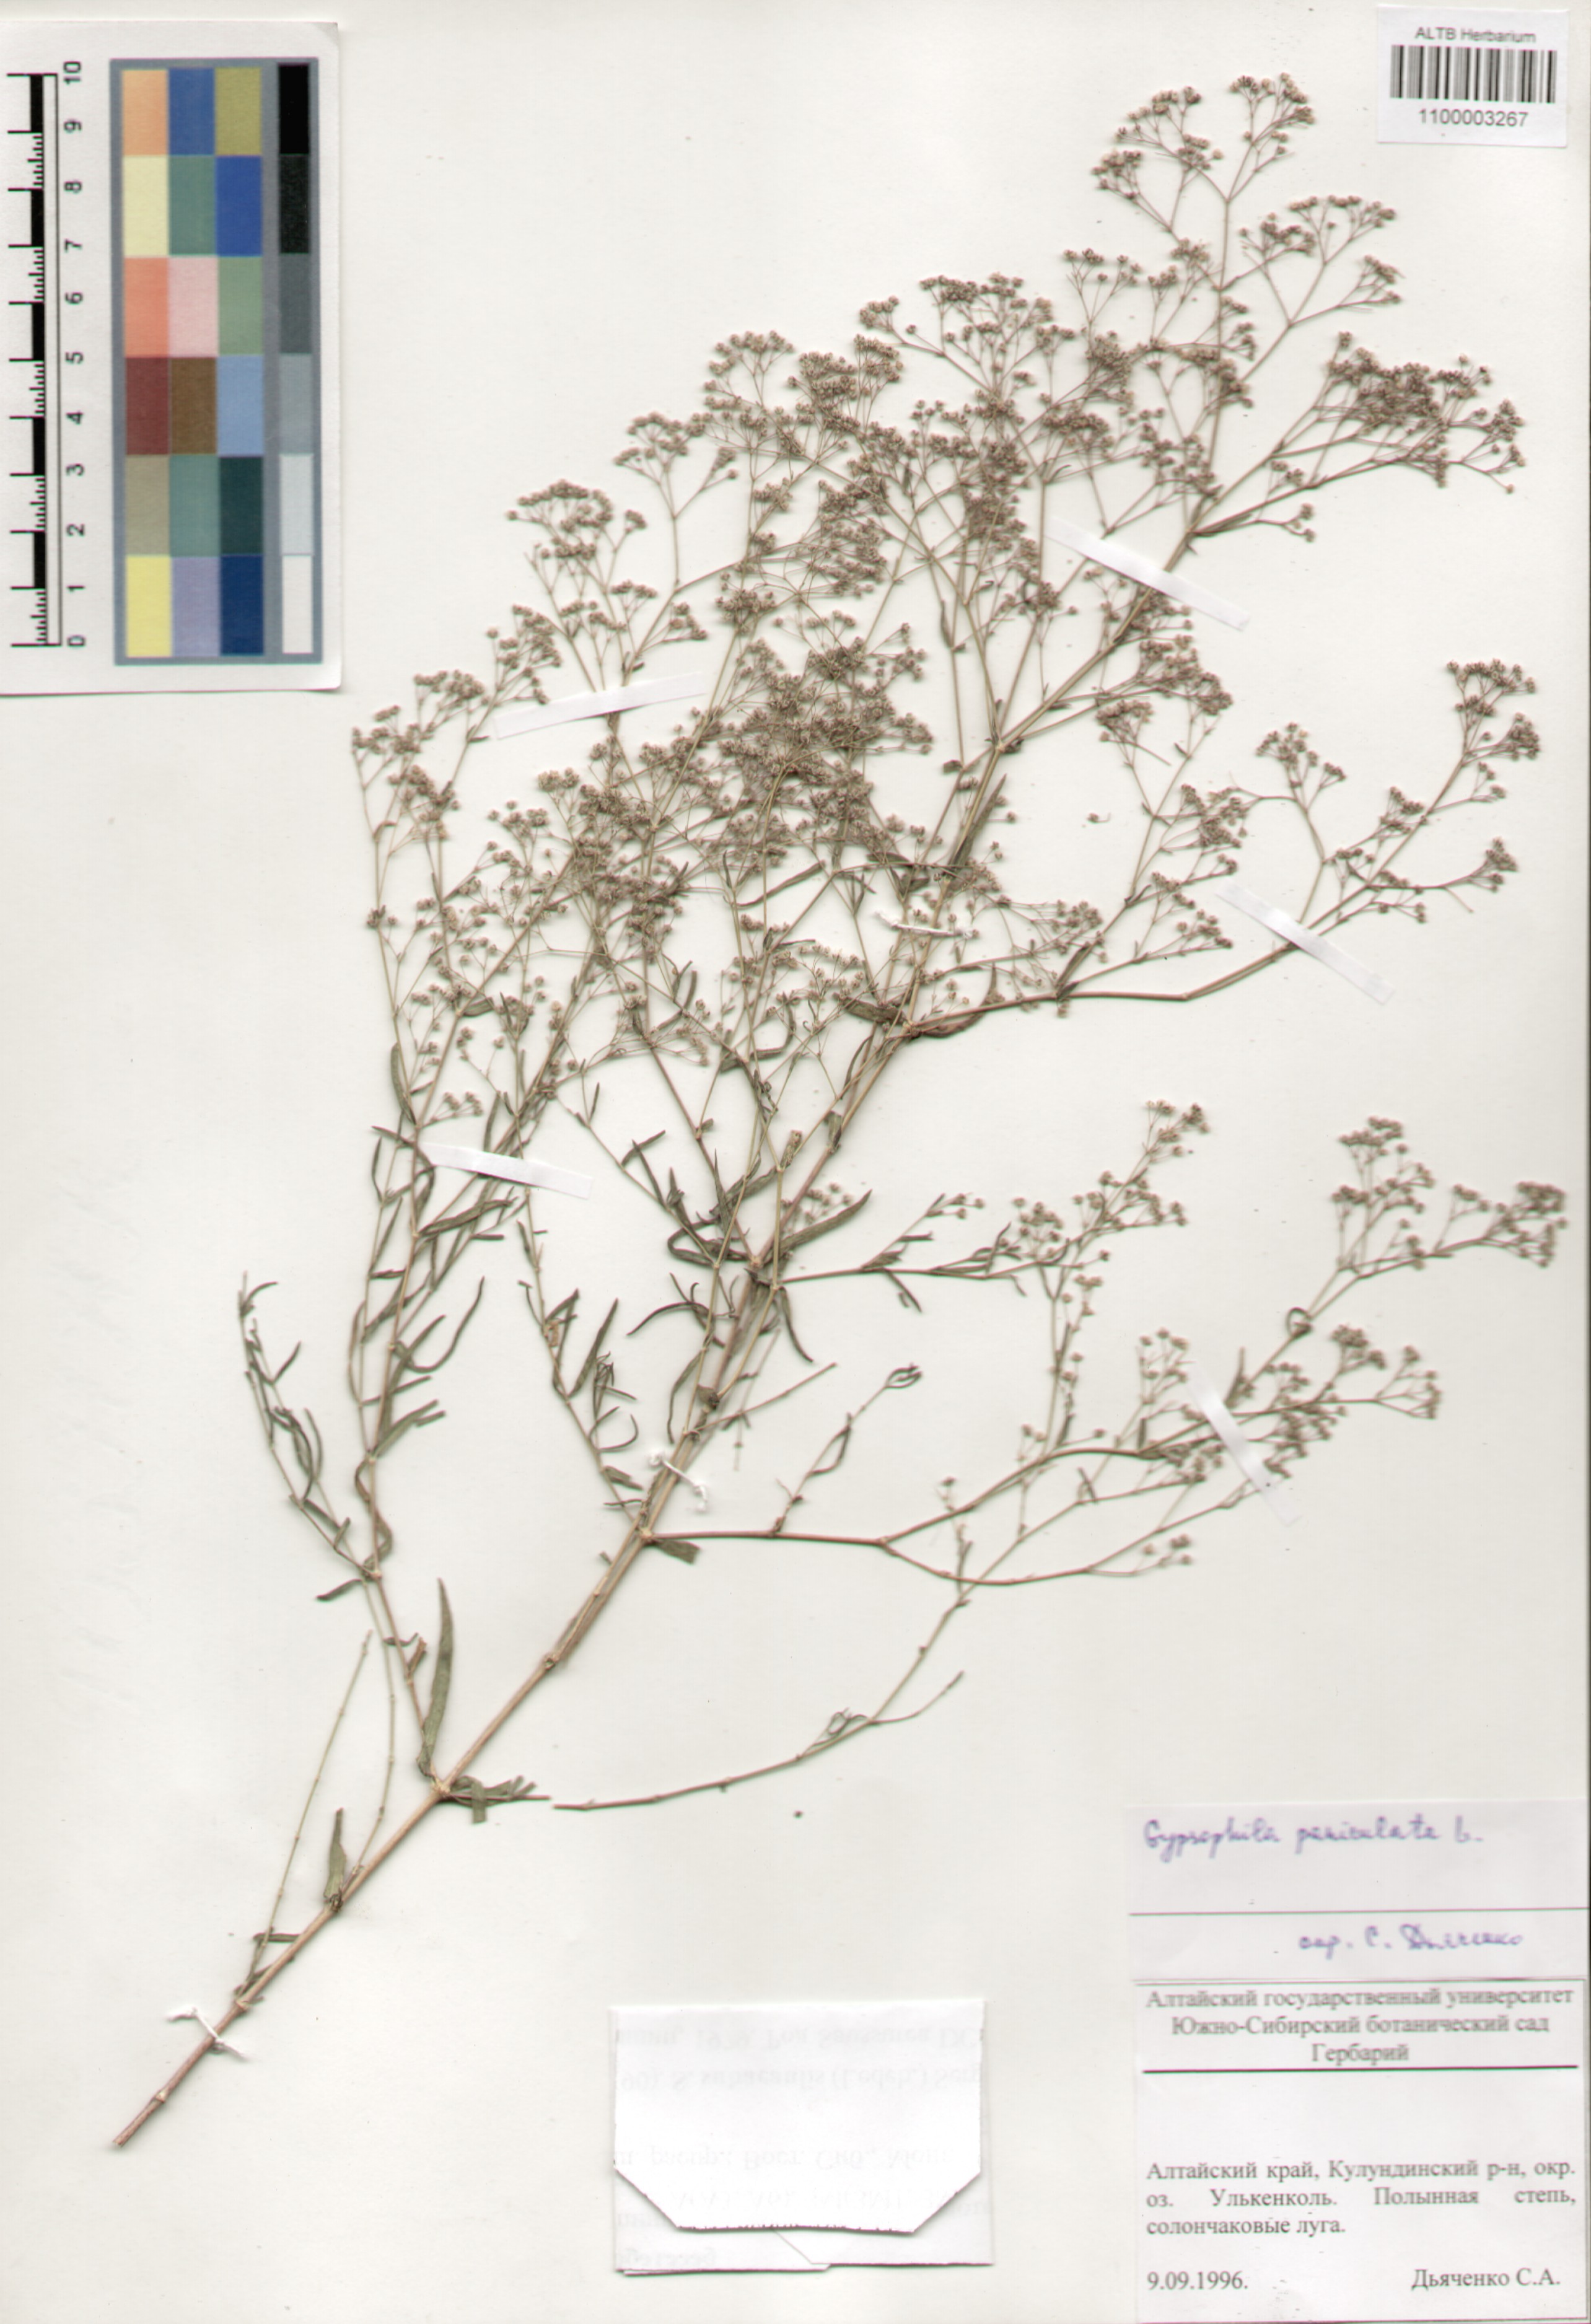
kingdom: Plantae
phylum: Tracheophyta
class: Magnoliopsida
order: Caryophyllales
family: Caryophyllaceae
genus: Gypsophila
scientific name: Gypsophila paniculata
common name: Baby's-breath
